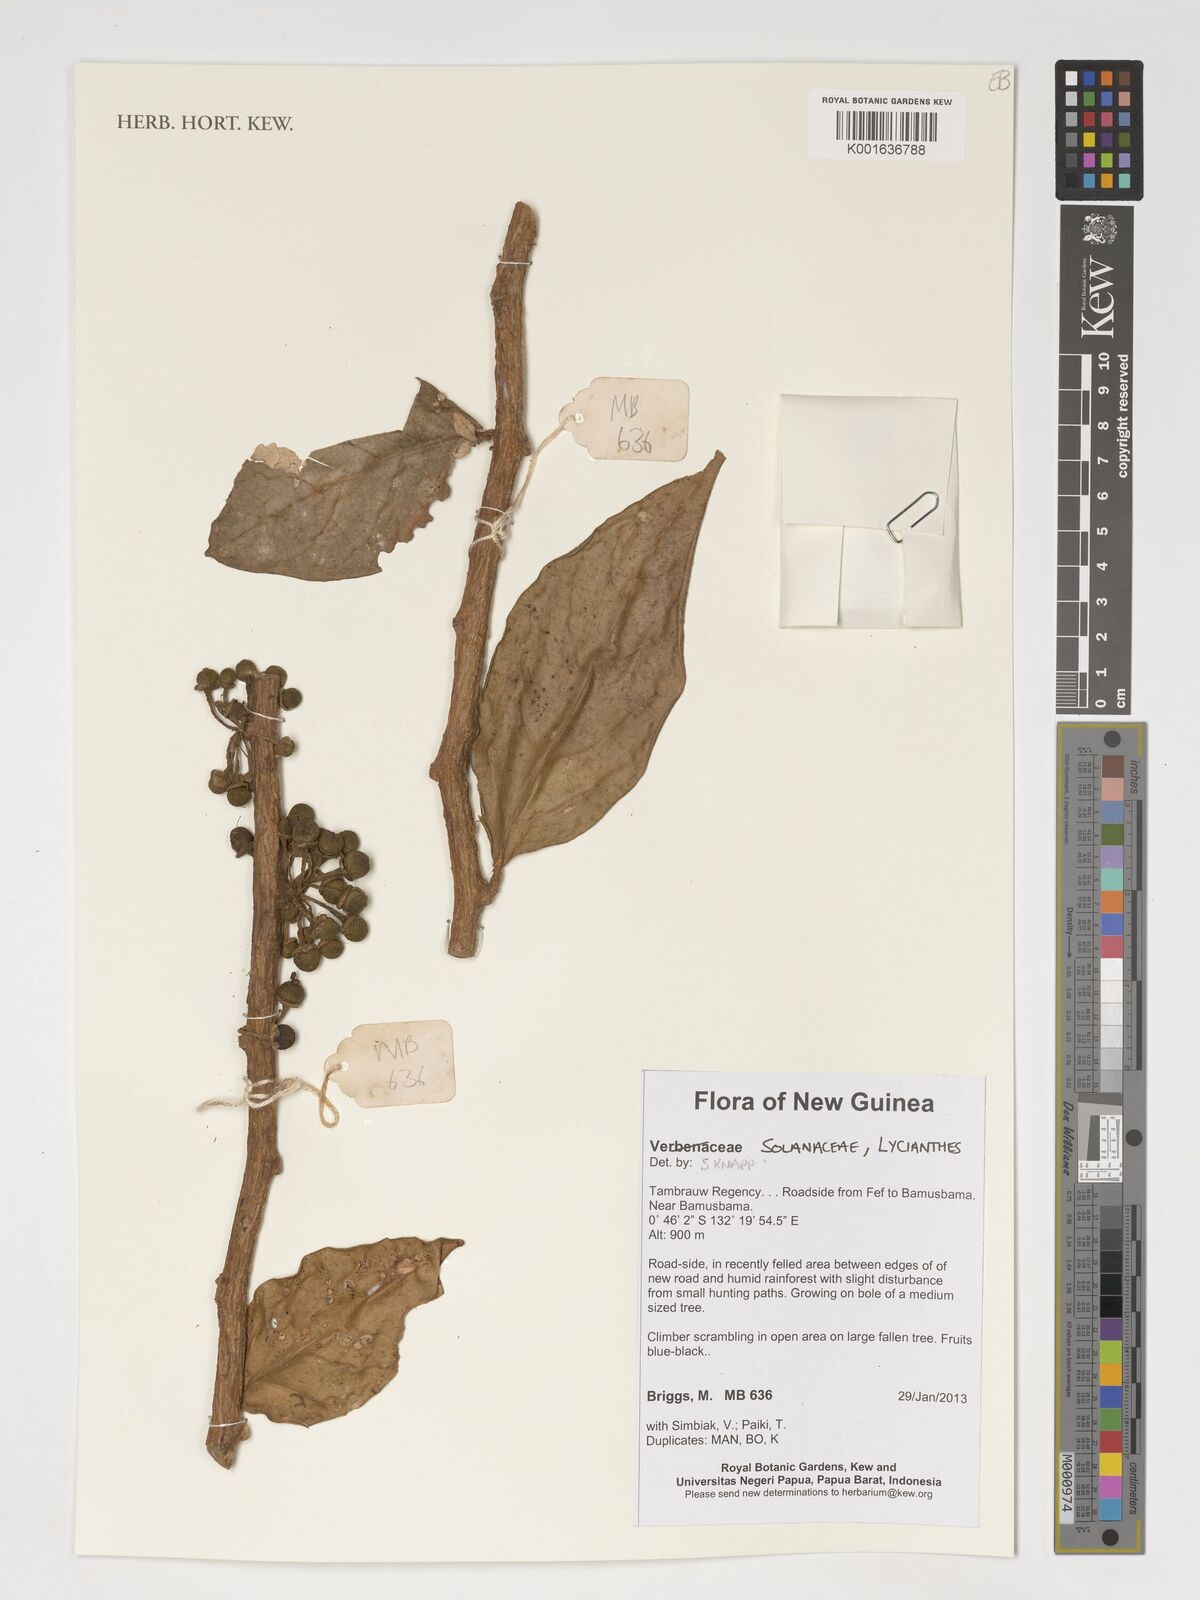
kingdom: Plantae
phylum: Tracheophyta
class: Magnoliopsida
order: Solanales
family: Solanaceae
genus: Lycianthes
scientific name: Lycianthes
